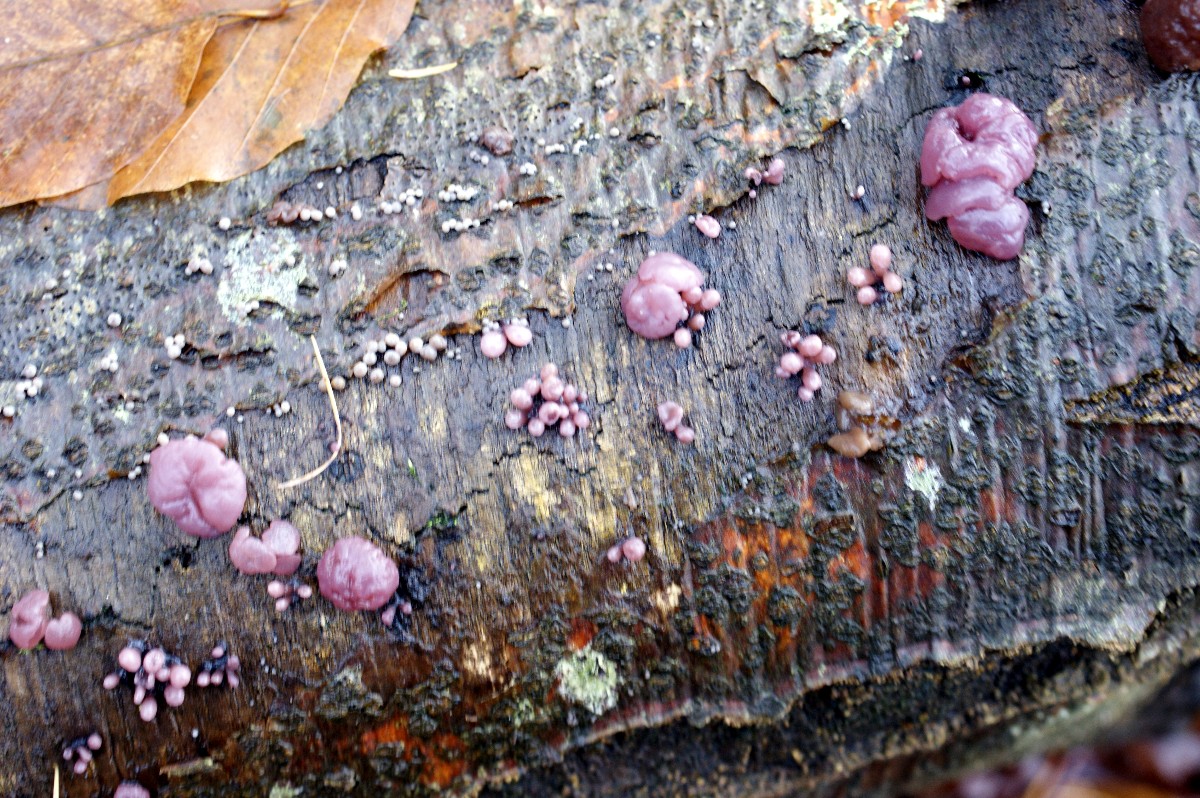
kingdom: Fungi
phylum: Ascomycota
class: Leotiomycetes
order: Helotiales
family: Gelatinodiscaceae
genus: Ascocoryne
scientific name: Ascocoryne sarcoides
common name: rødlilla sejskive
